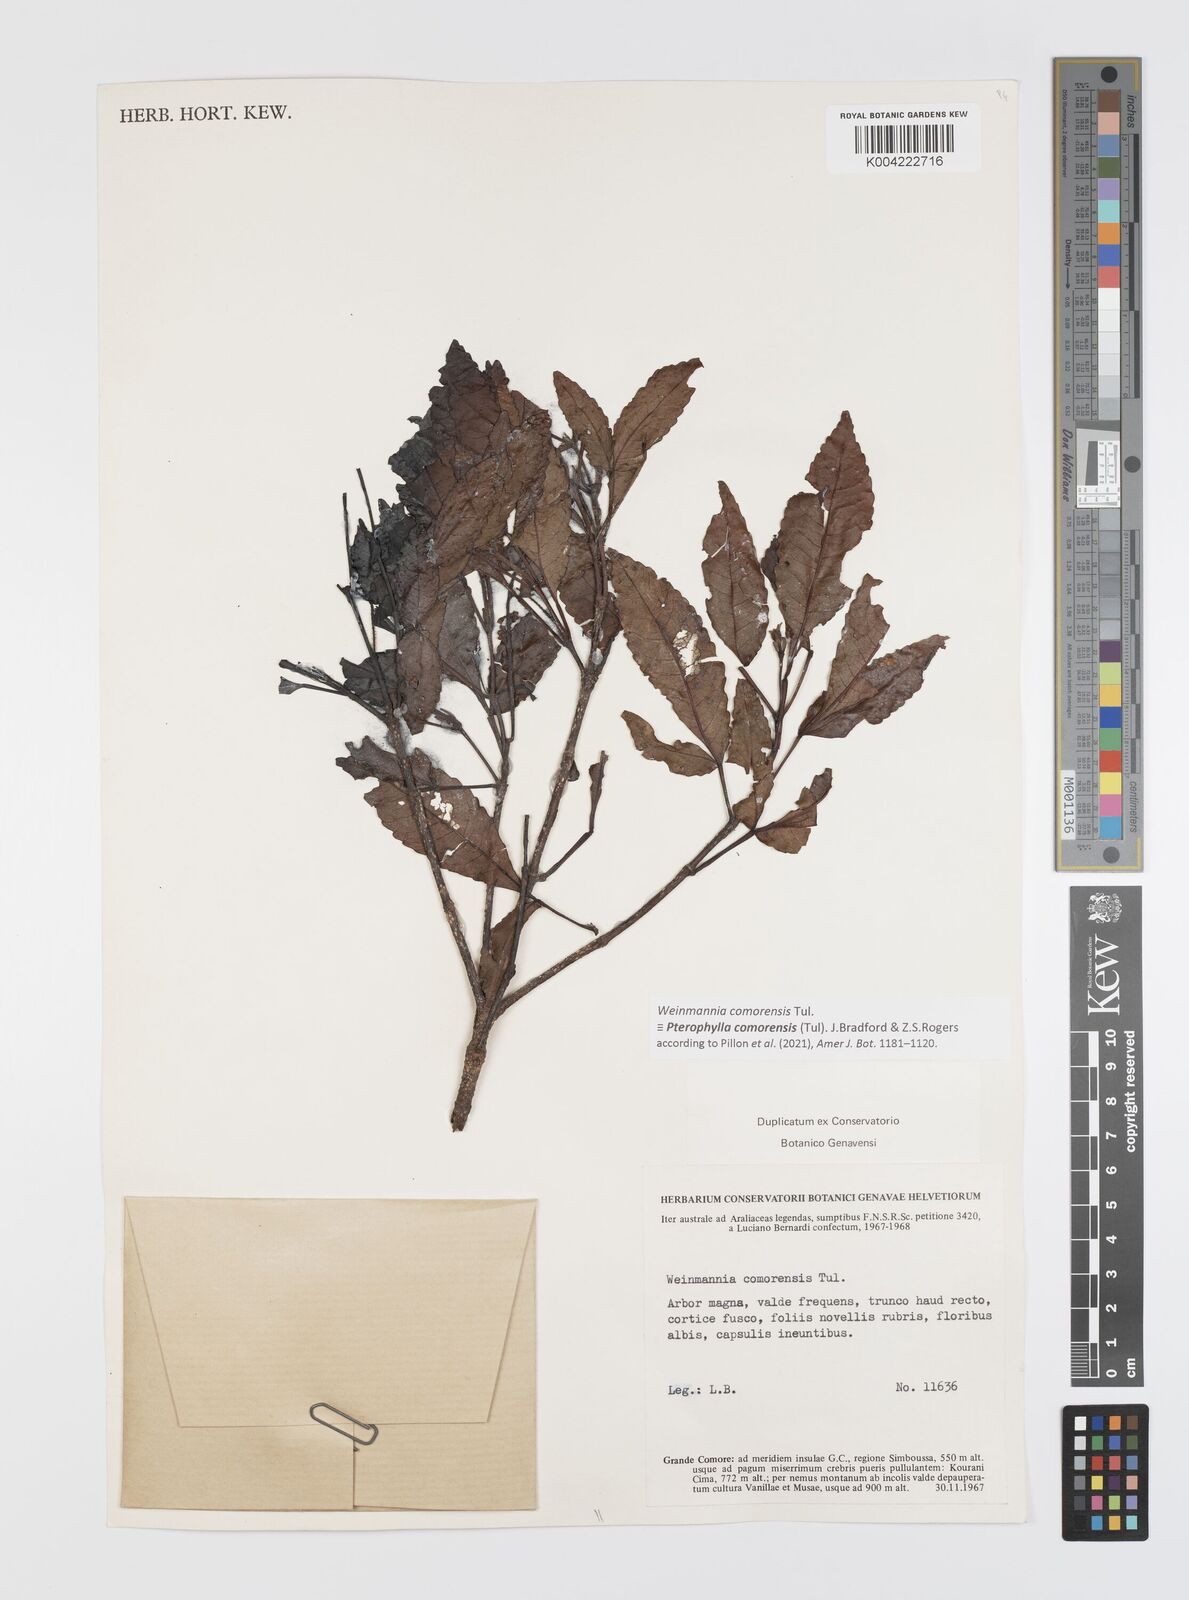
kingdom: Plantae
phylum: Tracheophyta
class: Magnoliopsida
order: Oxalidales
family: Cunoniaceae
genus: Pterophylla
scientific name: Pterophylla
